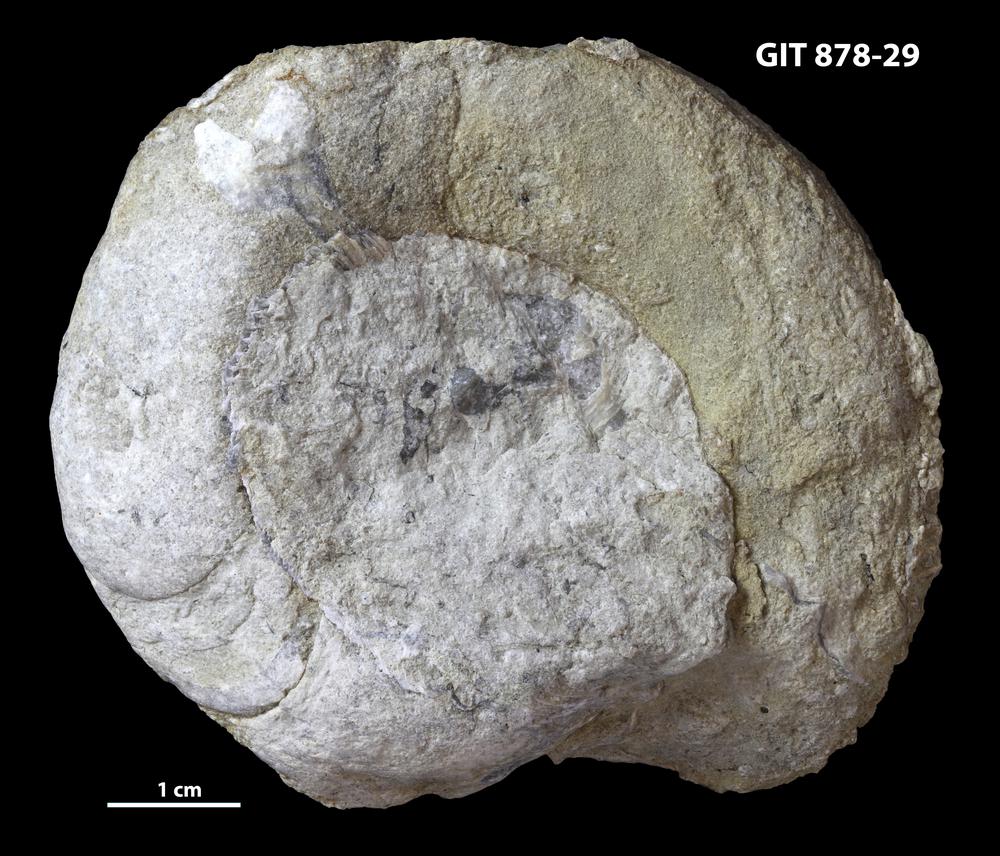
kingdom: Animalia
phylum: Mollusca
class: Cephalopoda
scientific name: Cephalopoda
